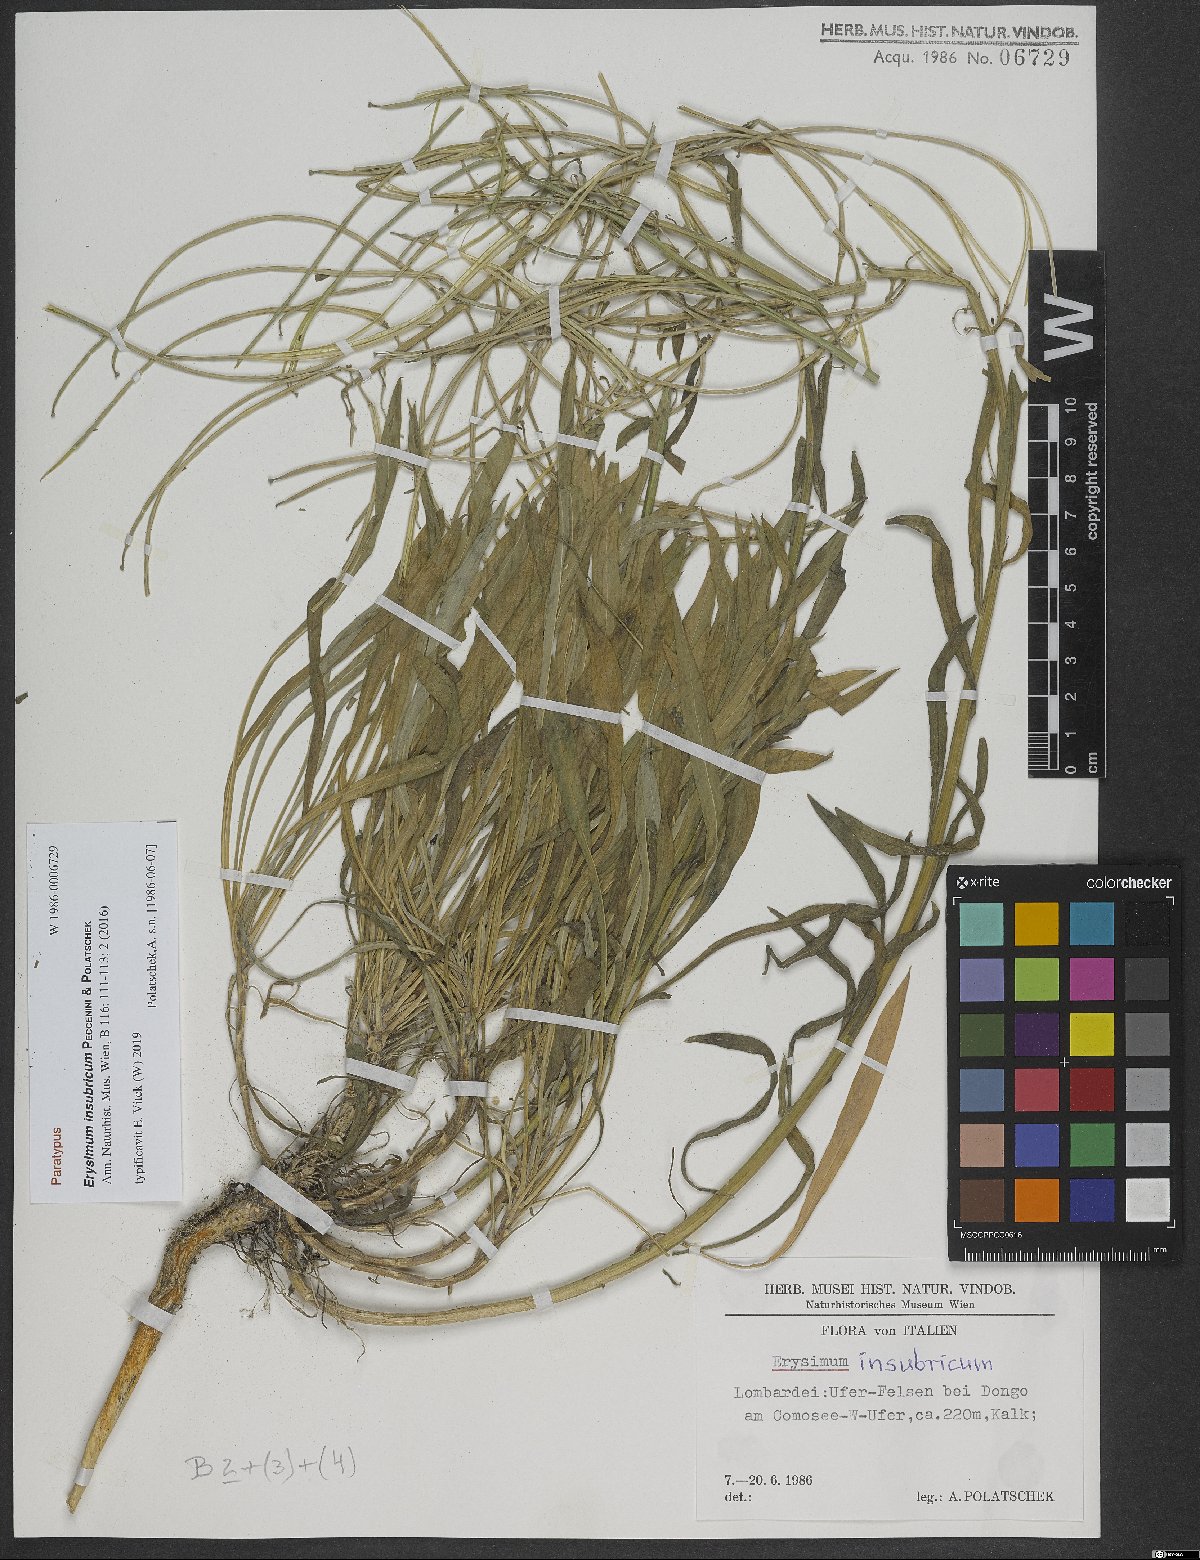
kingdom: Plantae
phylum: Tracheophyta
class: Magnoliopsida
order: Brassicales
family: Brassicaceae
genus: Erysimum
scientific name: Erysimum insubricum
